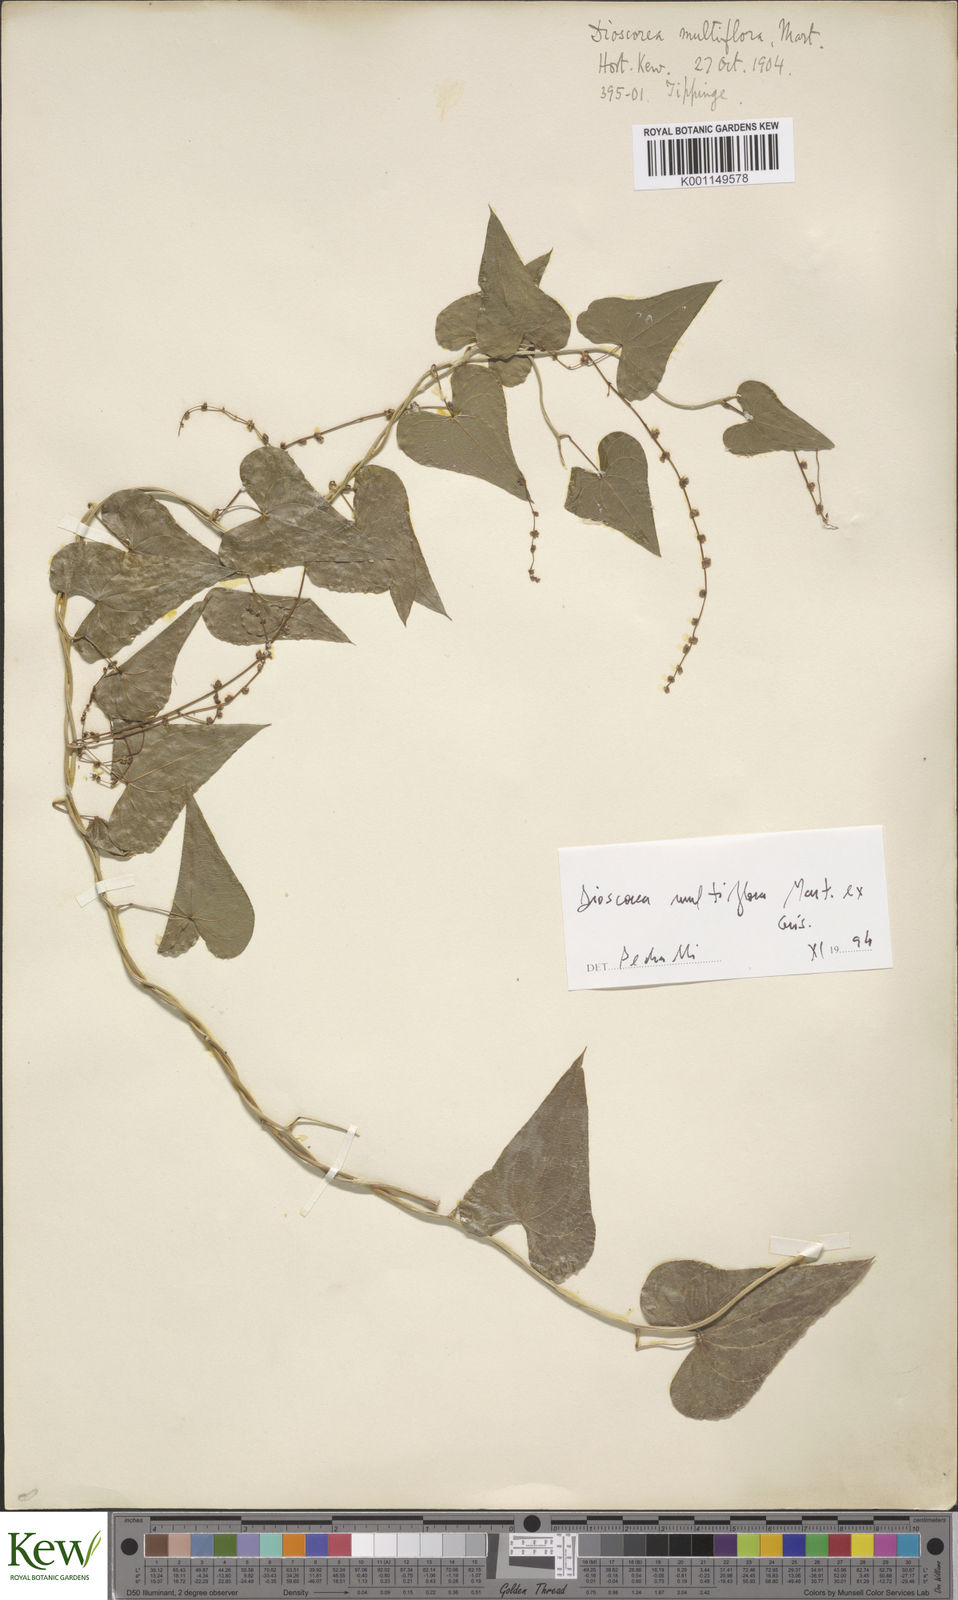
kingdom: Plantae
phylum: Tracheophyta
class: Liliopsida
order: Dioscoreales
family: Dioscoreaceae
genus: Dioscorea
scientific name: Dioscorea multiflora
